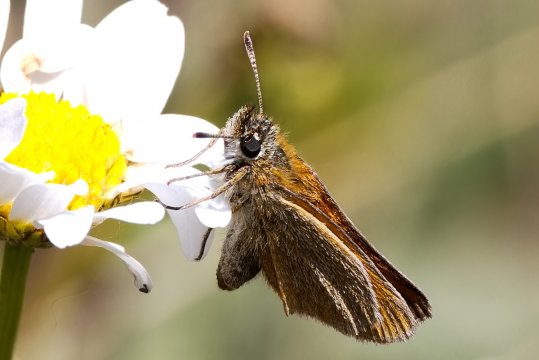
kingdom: Animalia
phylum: Arthropoda
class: Insecta
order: Lepidoptera
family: Hesperiidae
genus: Thymelicus
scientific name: Thymelicus lineola
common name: European Skipper
